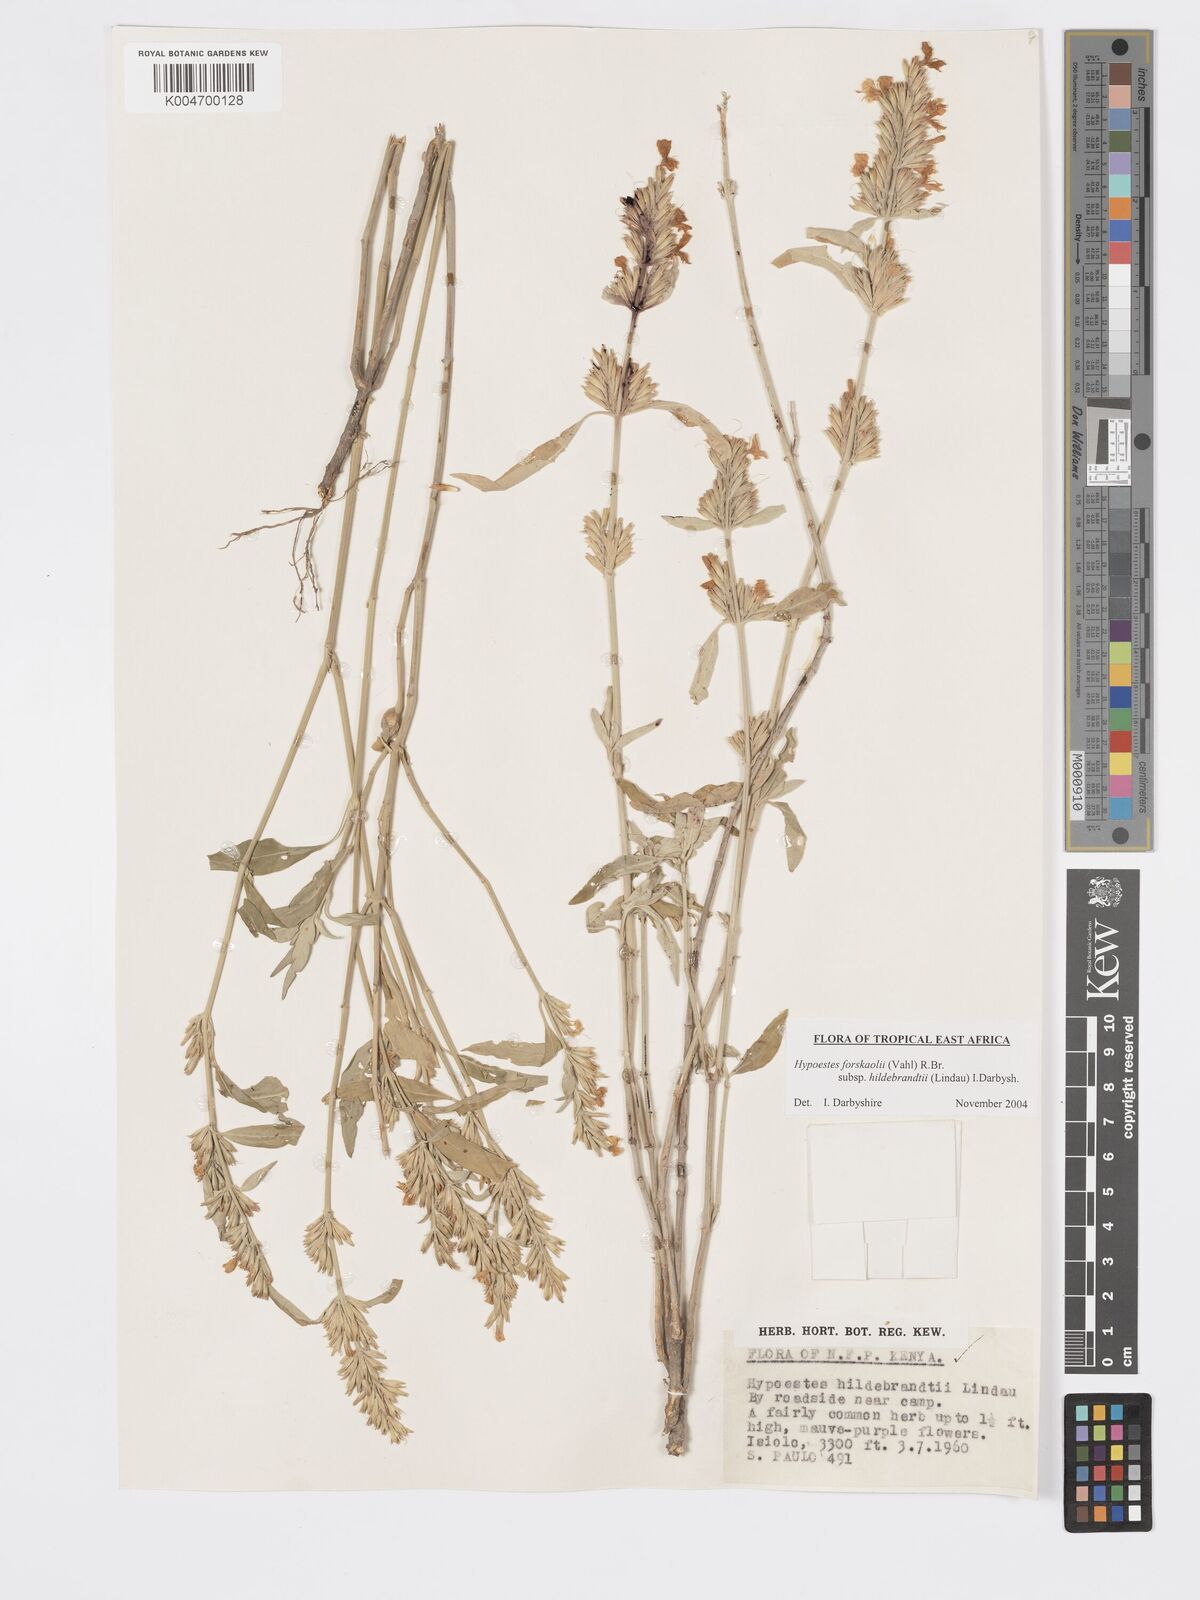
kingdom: Plantae
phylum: Tracheophyta
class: Magnoliopsida
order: Lamiales
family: Acanthaceae
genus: Hypoestes
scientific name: Hypoestes forskaolii
